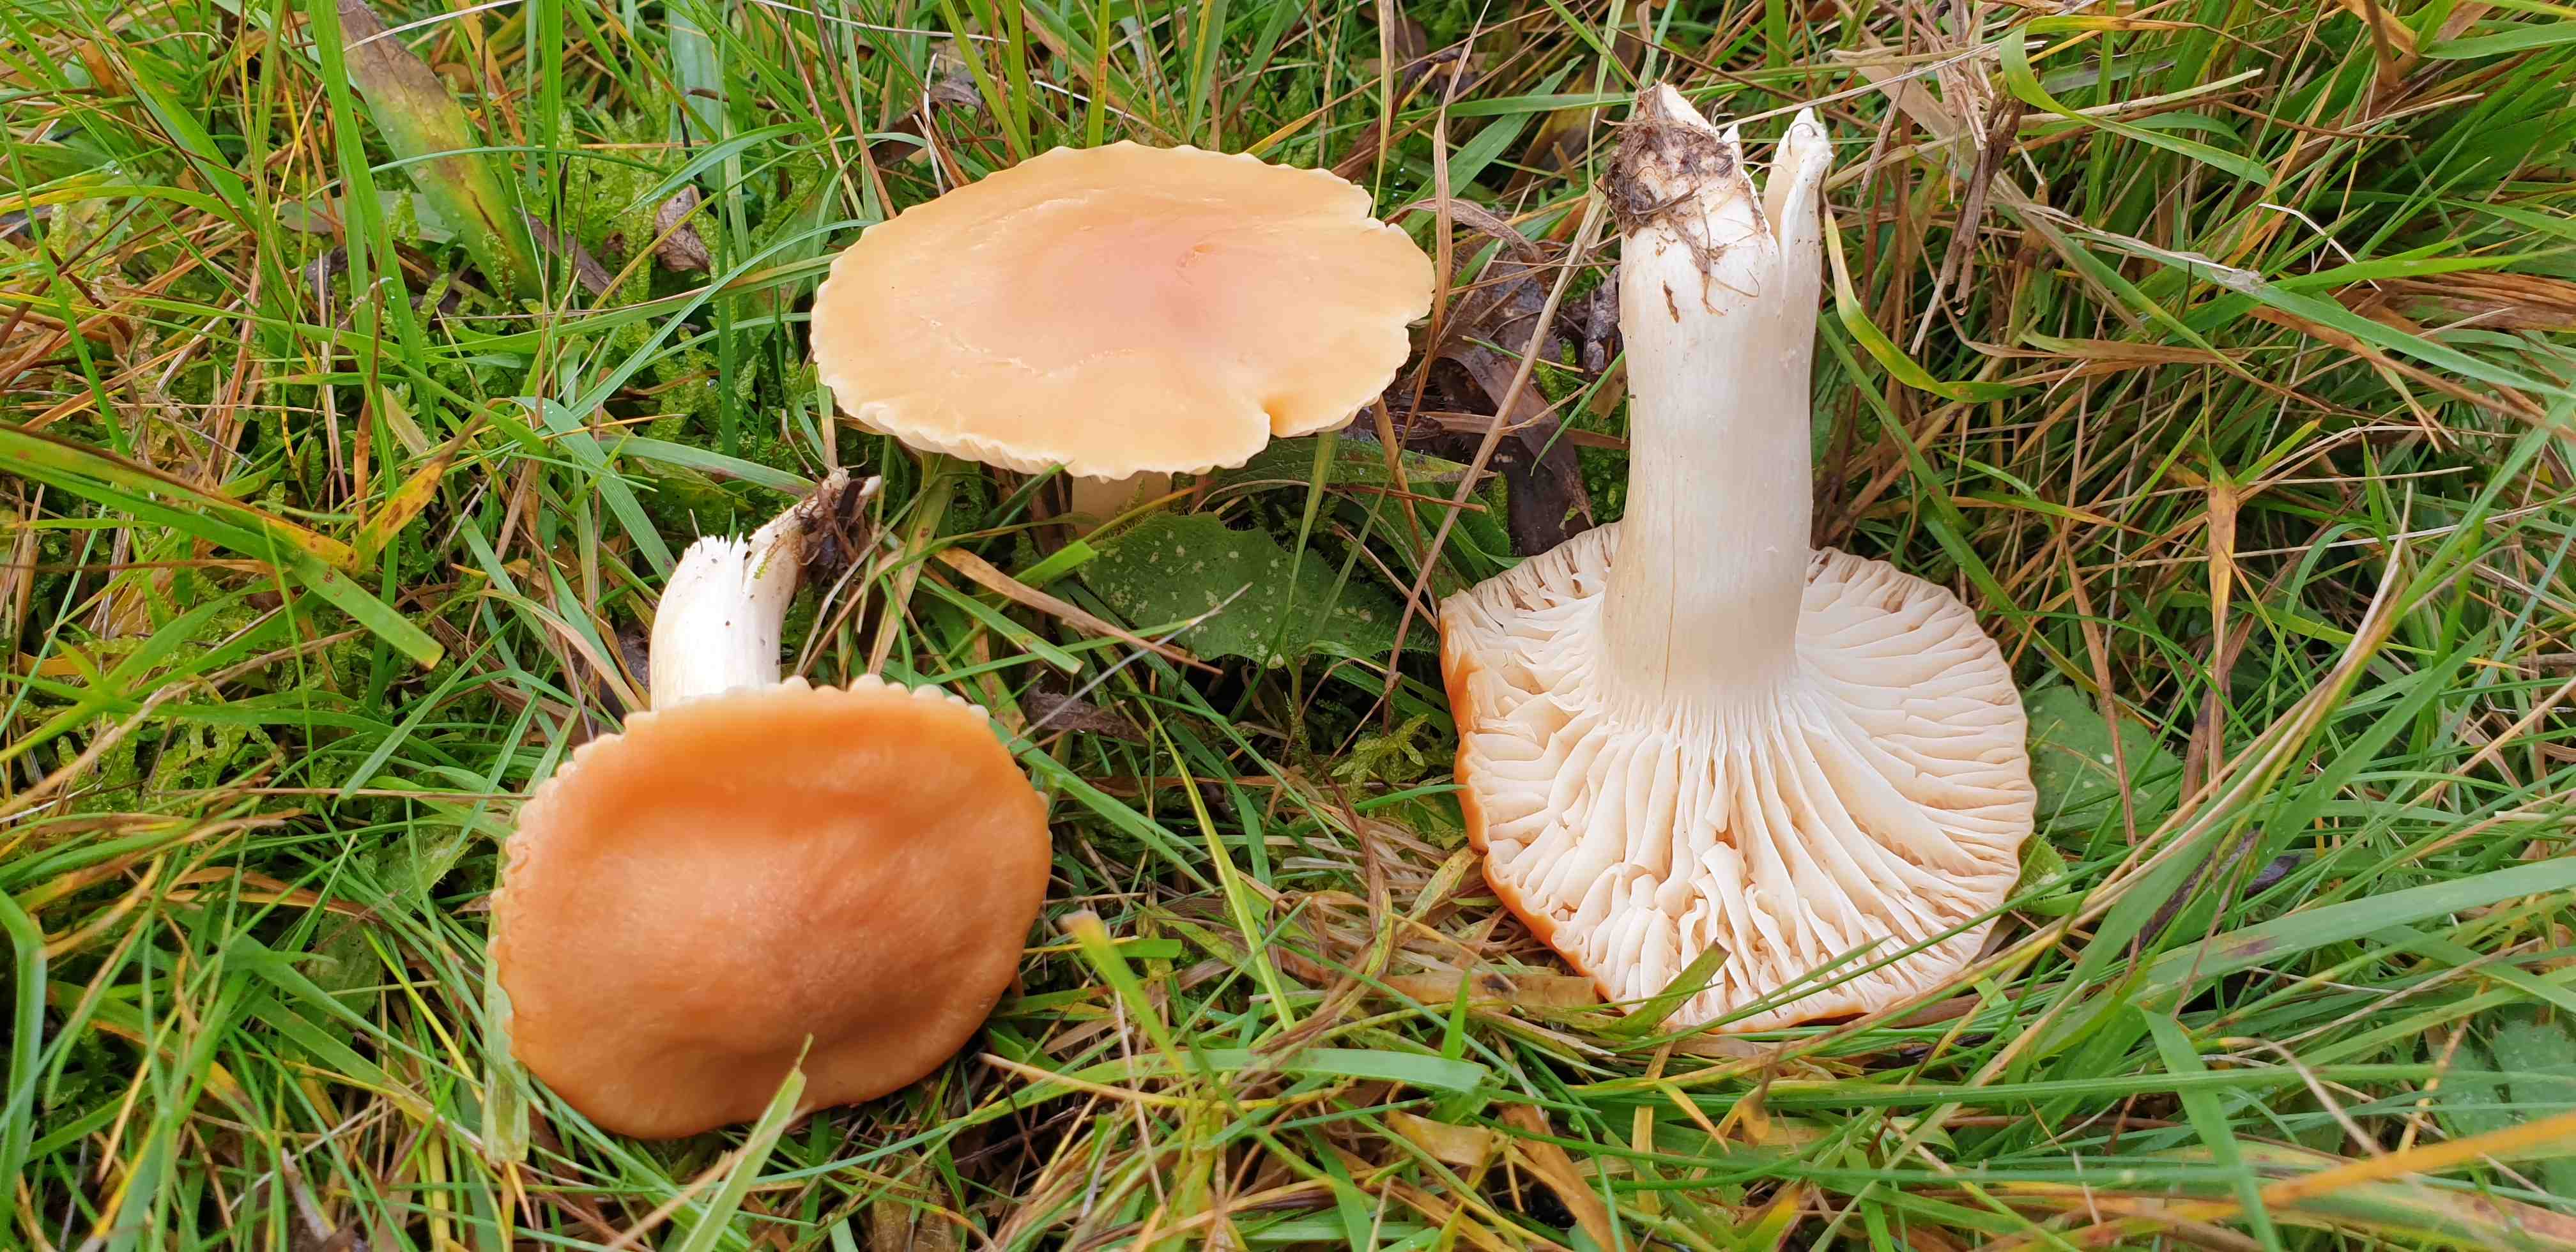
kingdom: Fungi
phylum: Basidiomycota
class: Agaricomycetes
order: Agaricales
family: Hygrophoraceae
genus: Cuphophyllus
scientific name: Cuphophyllus pratensis
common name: eng-vokshat
